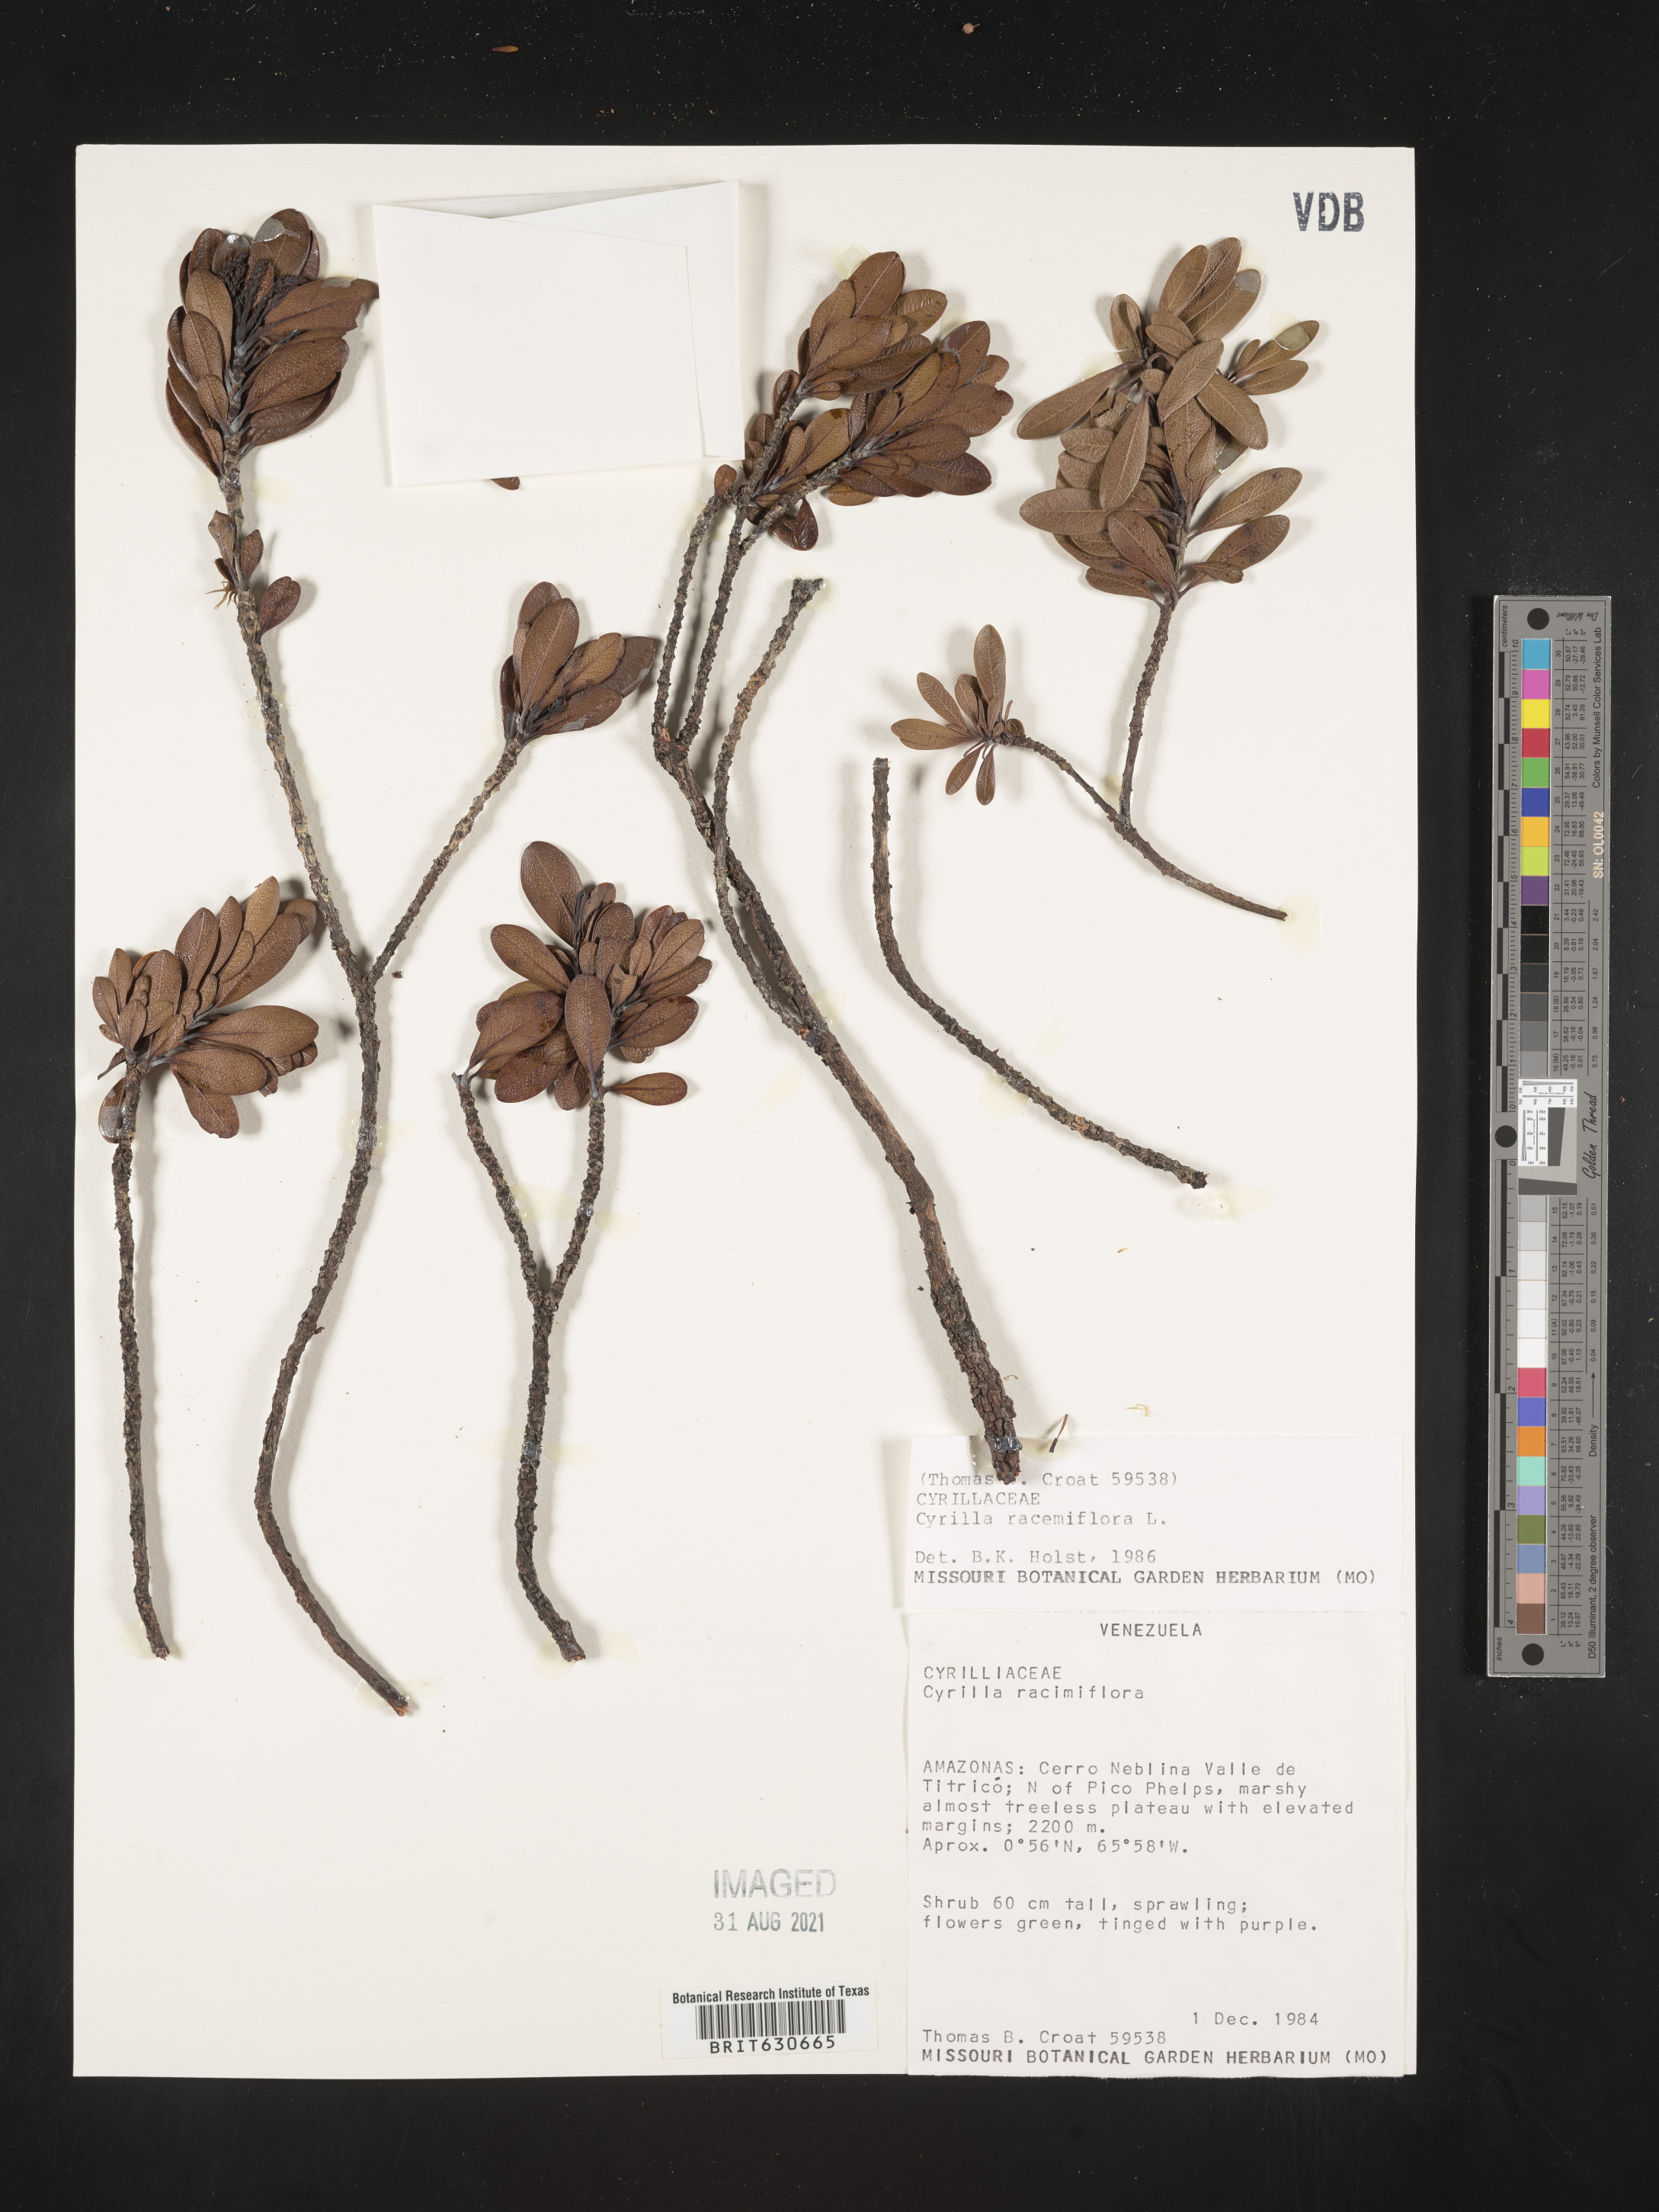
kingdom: Plantae
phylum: Tracheophyta
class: Magnoliopsida
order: Ericales
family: Cyrillaceae
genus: Cyrilla
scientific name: Cyrilla racemiflora
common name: Black titi
